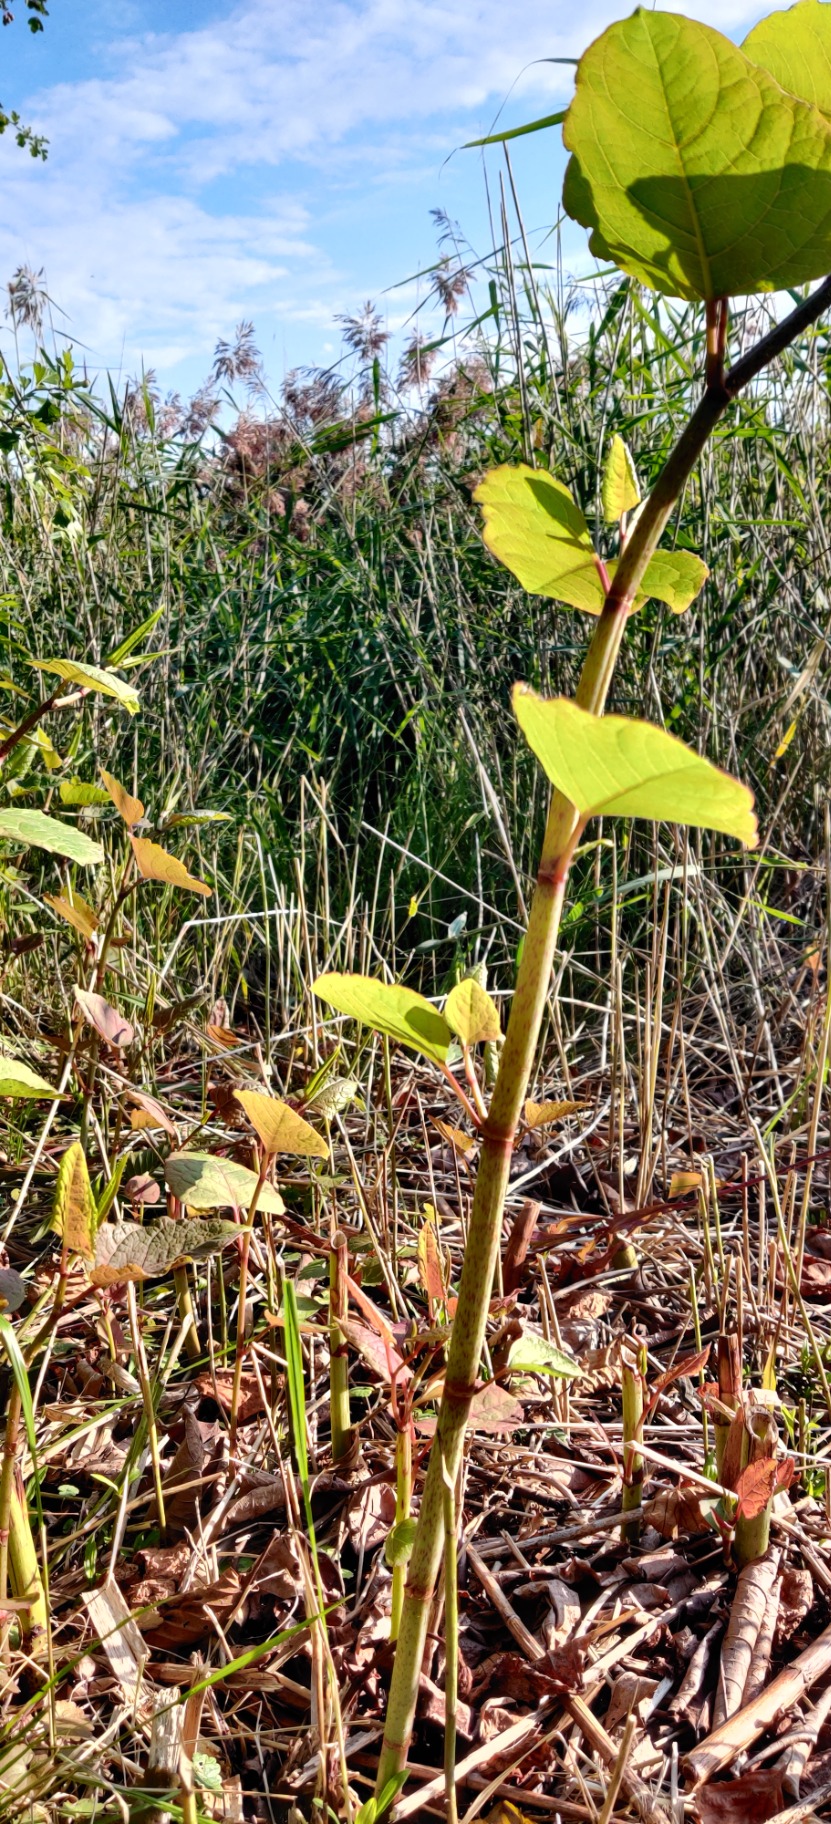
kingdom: Plantae
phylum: Tracheophyta
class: Magnoliopsida
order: Caryophyllales
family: Polygonaceae
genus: Reynoutria
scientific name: Reynoutria japonica
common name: Japan-pileurt
